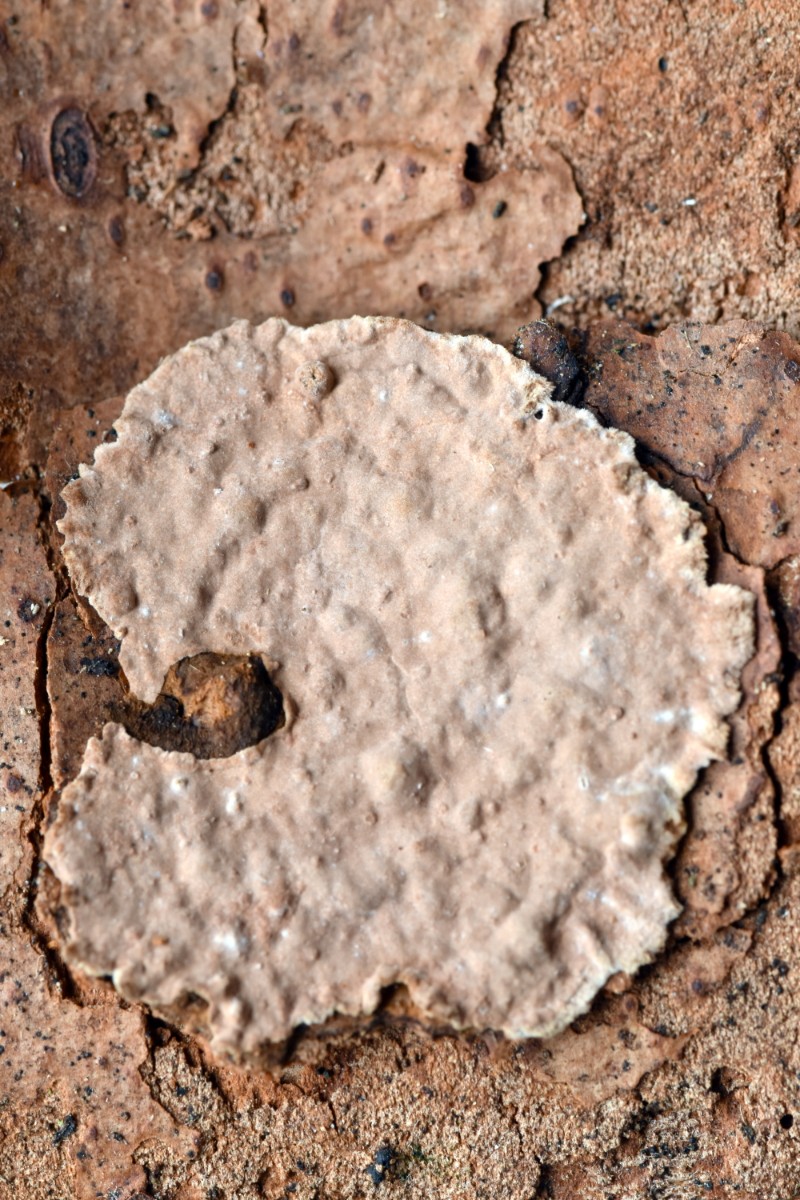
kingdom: Fungi
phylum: Basidiomycota
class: Agaricomycetes
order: Russulales
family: Echinodontiaceae
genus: Amylostereum
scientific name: Amylostereum chailletii
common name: gran-lædersvamp
